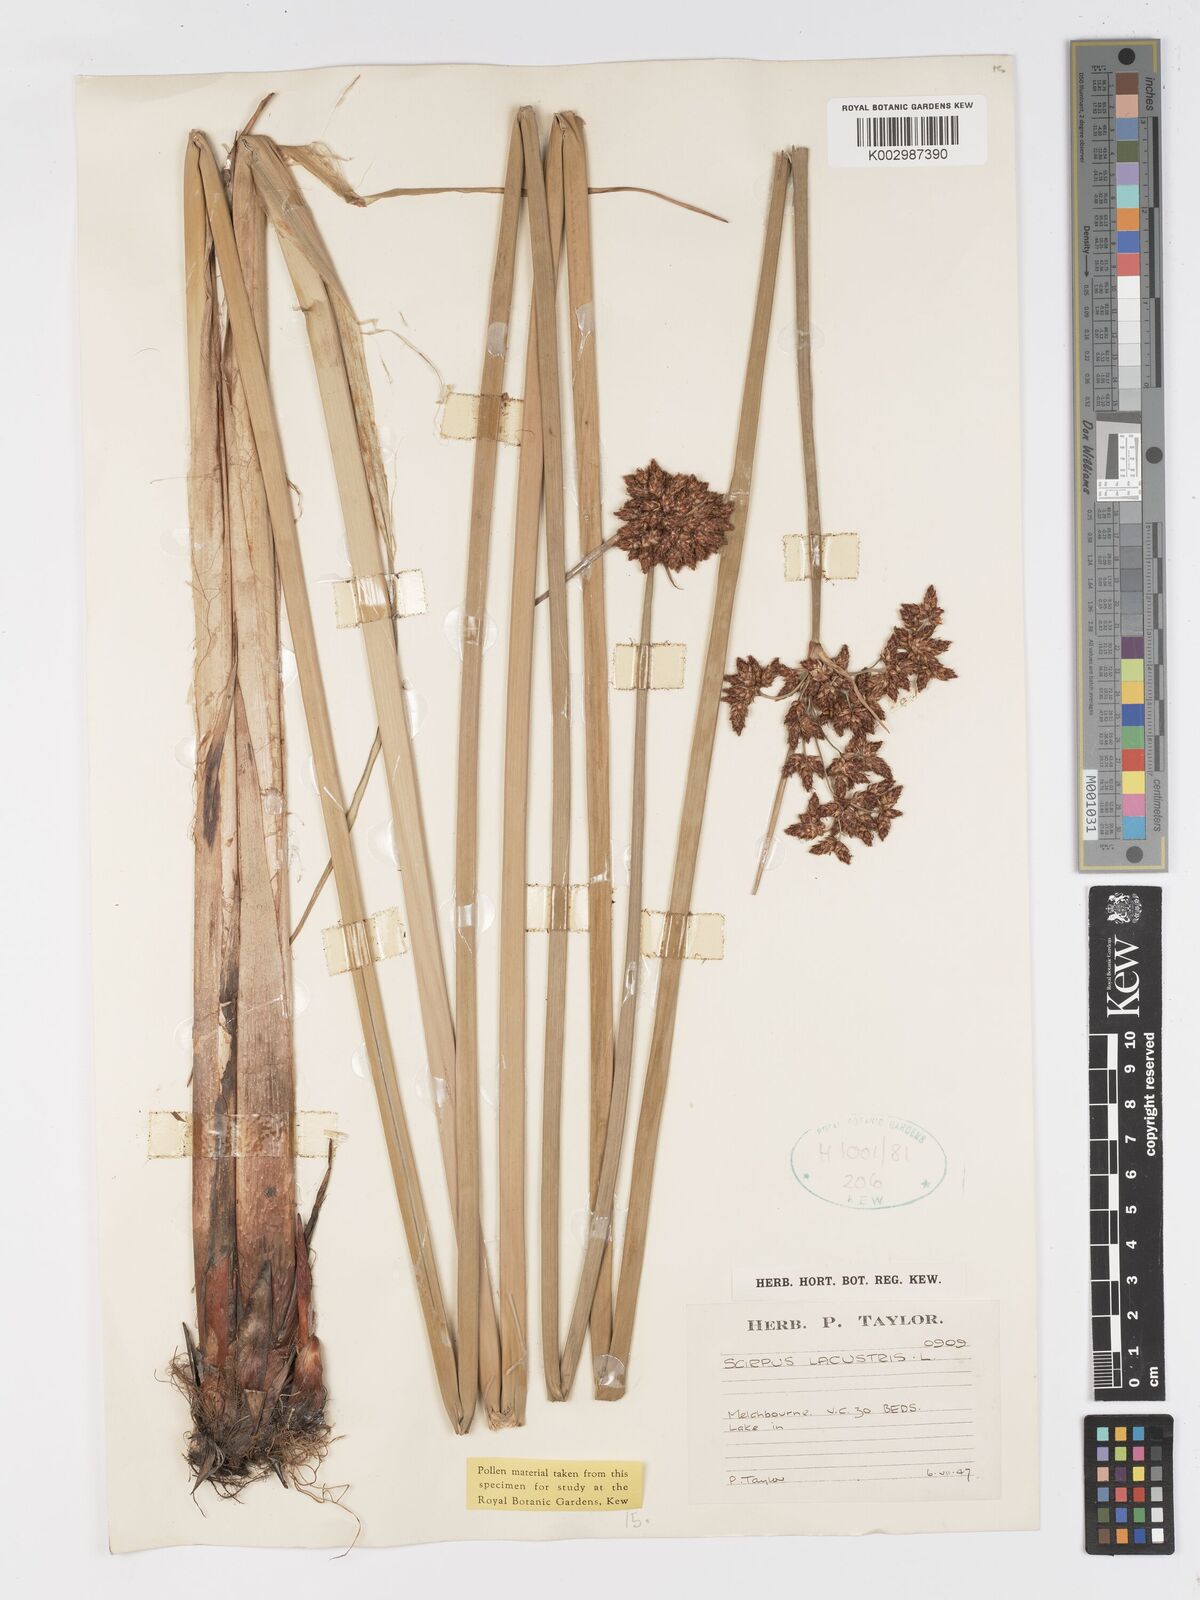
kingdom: Plantae
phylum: Tracheophyta
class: Liliopsida
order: Poales
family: Cyperaceae
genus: Schoenoplectus
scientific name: Schoenoplectus lacustris
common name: Common club-rush
